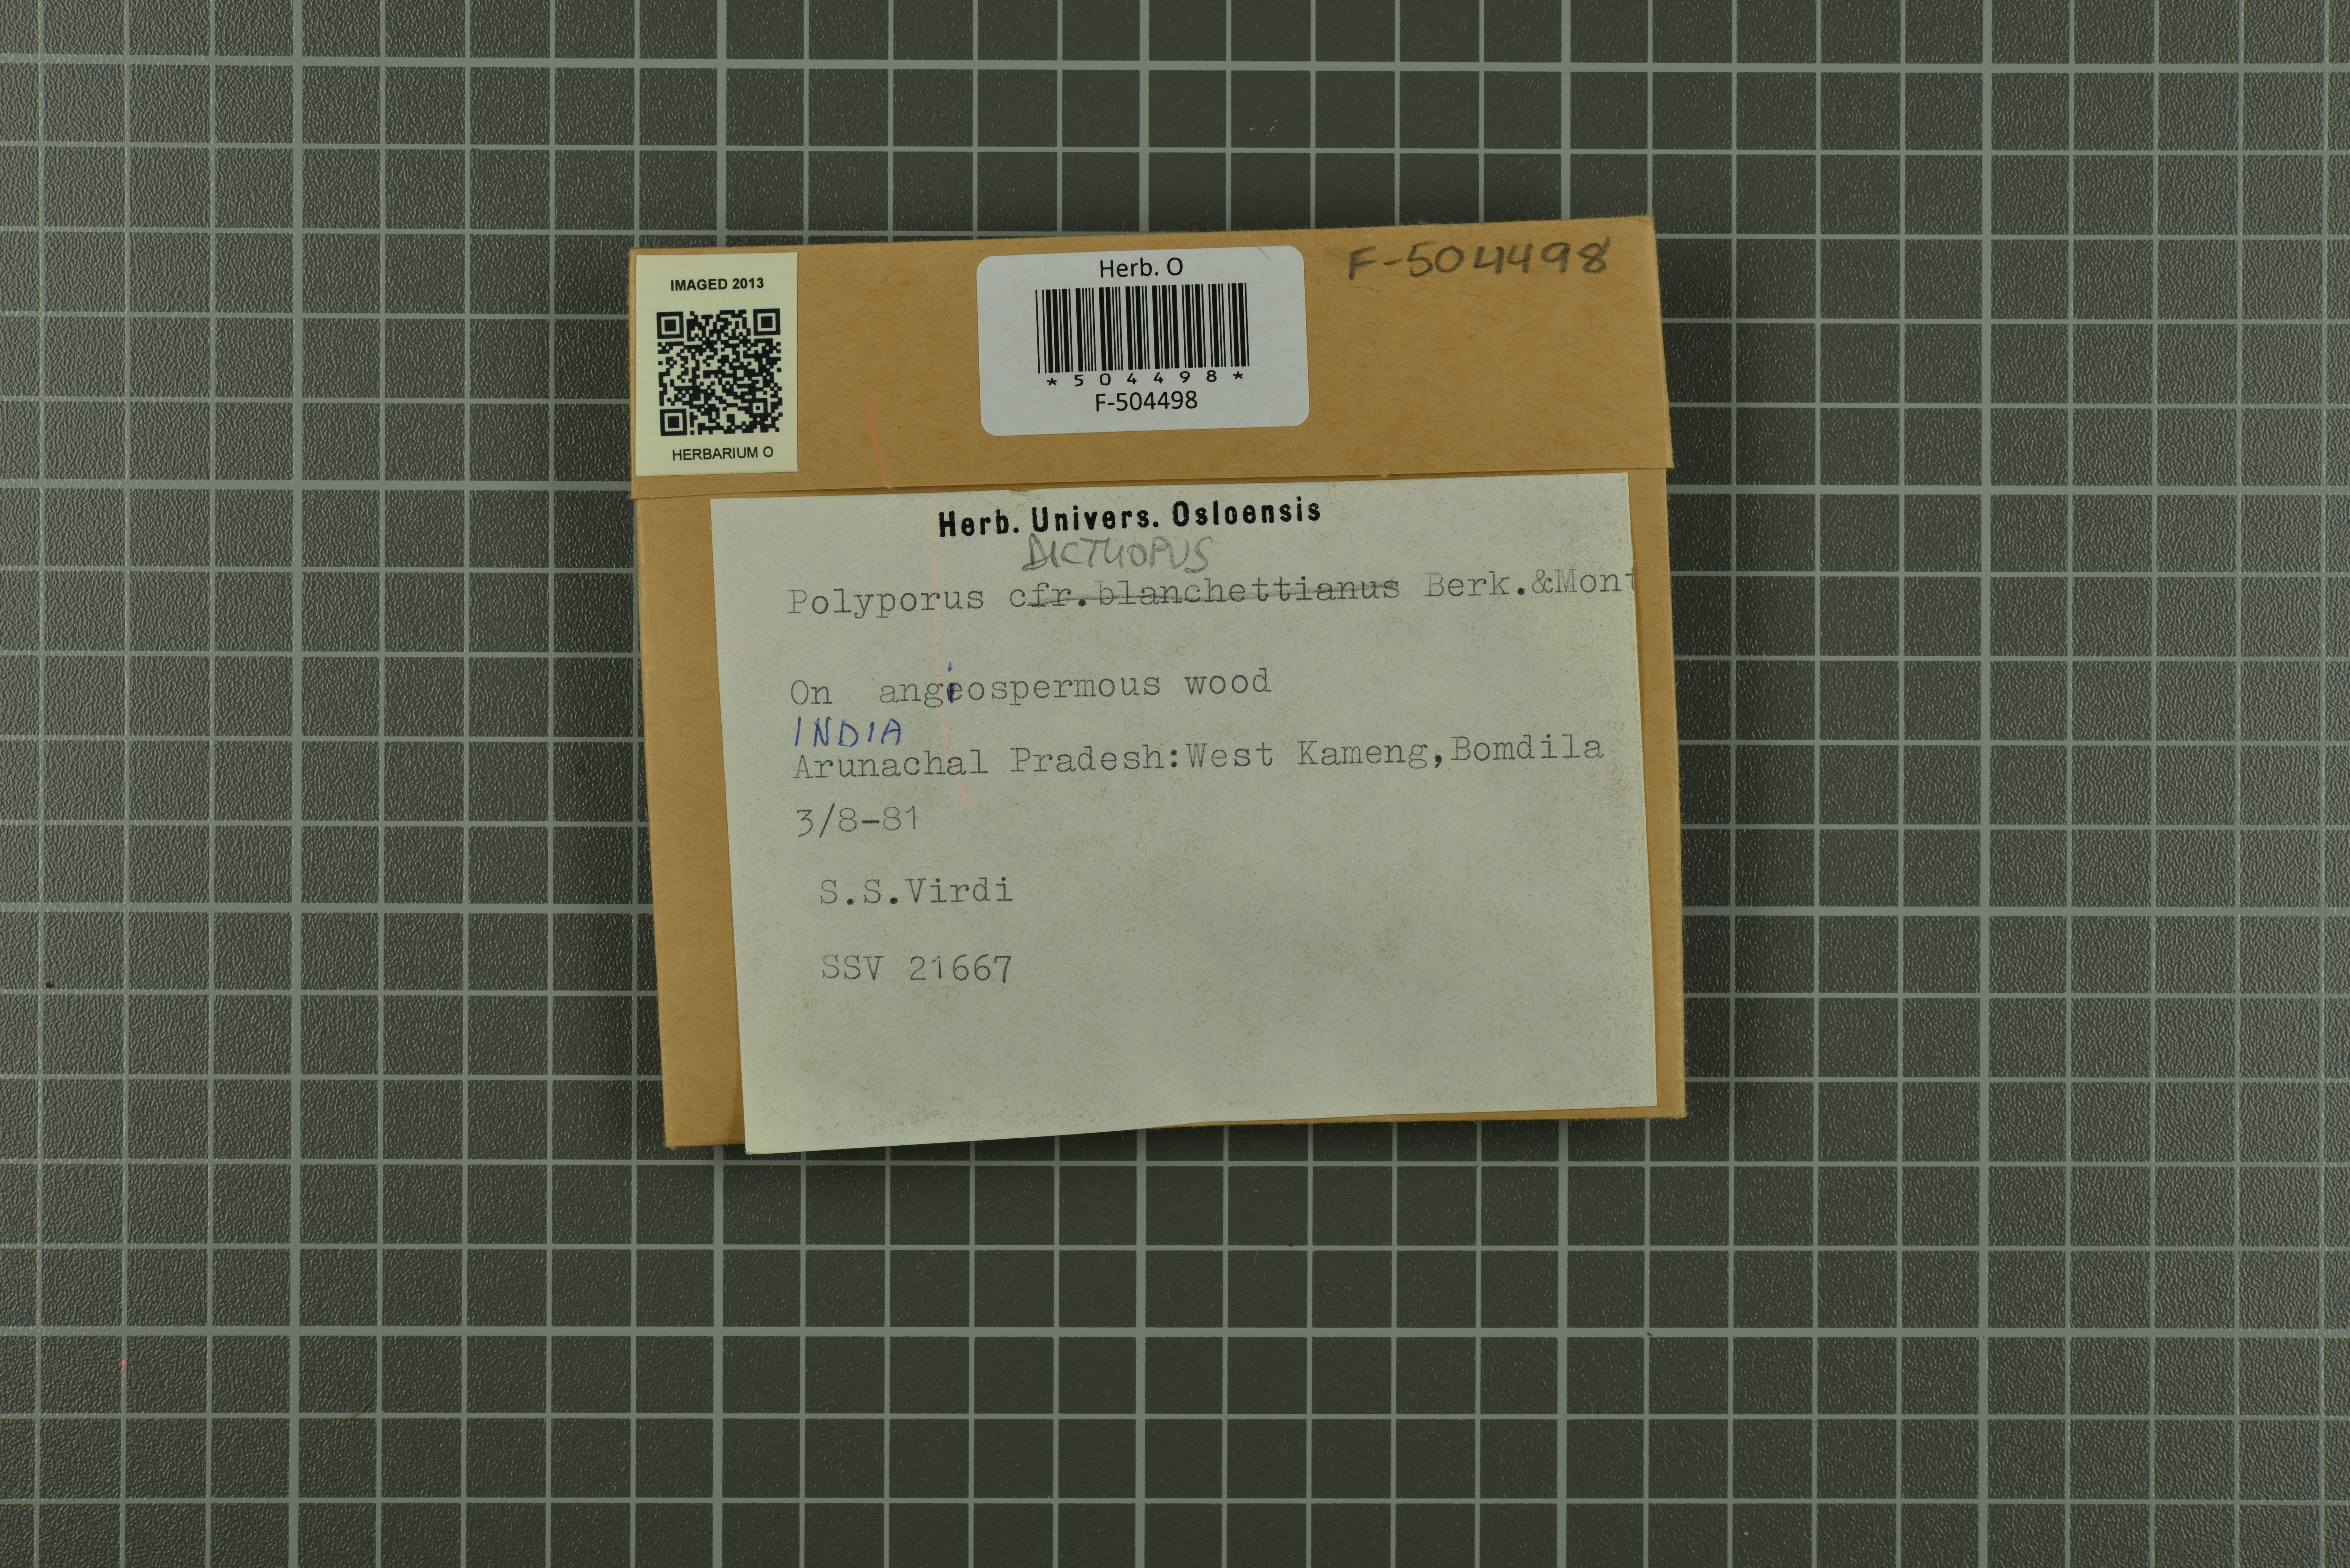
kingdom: Fungi
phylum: Basidiomycota
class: Agaricomycetes
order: Polyporales
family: Polyporaceae
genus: Picipes
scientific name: Picipes dictyopus
